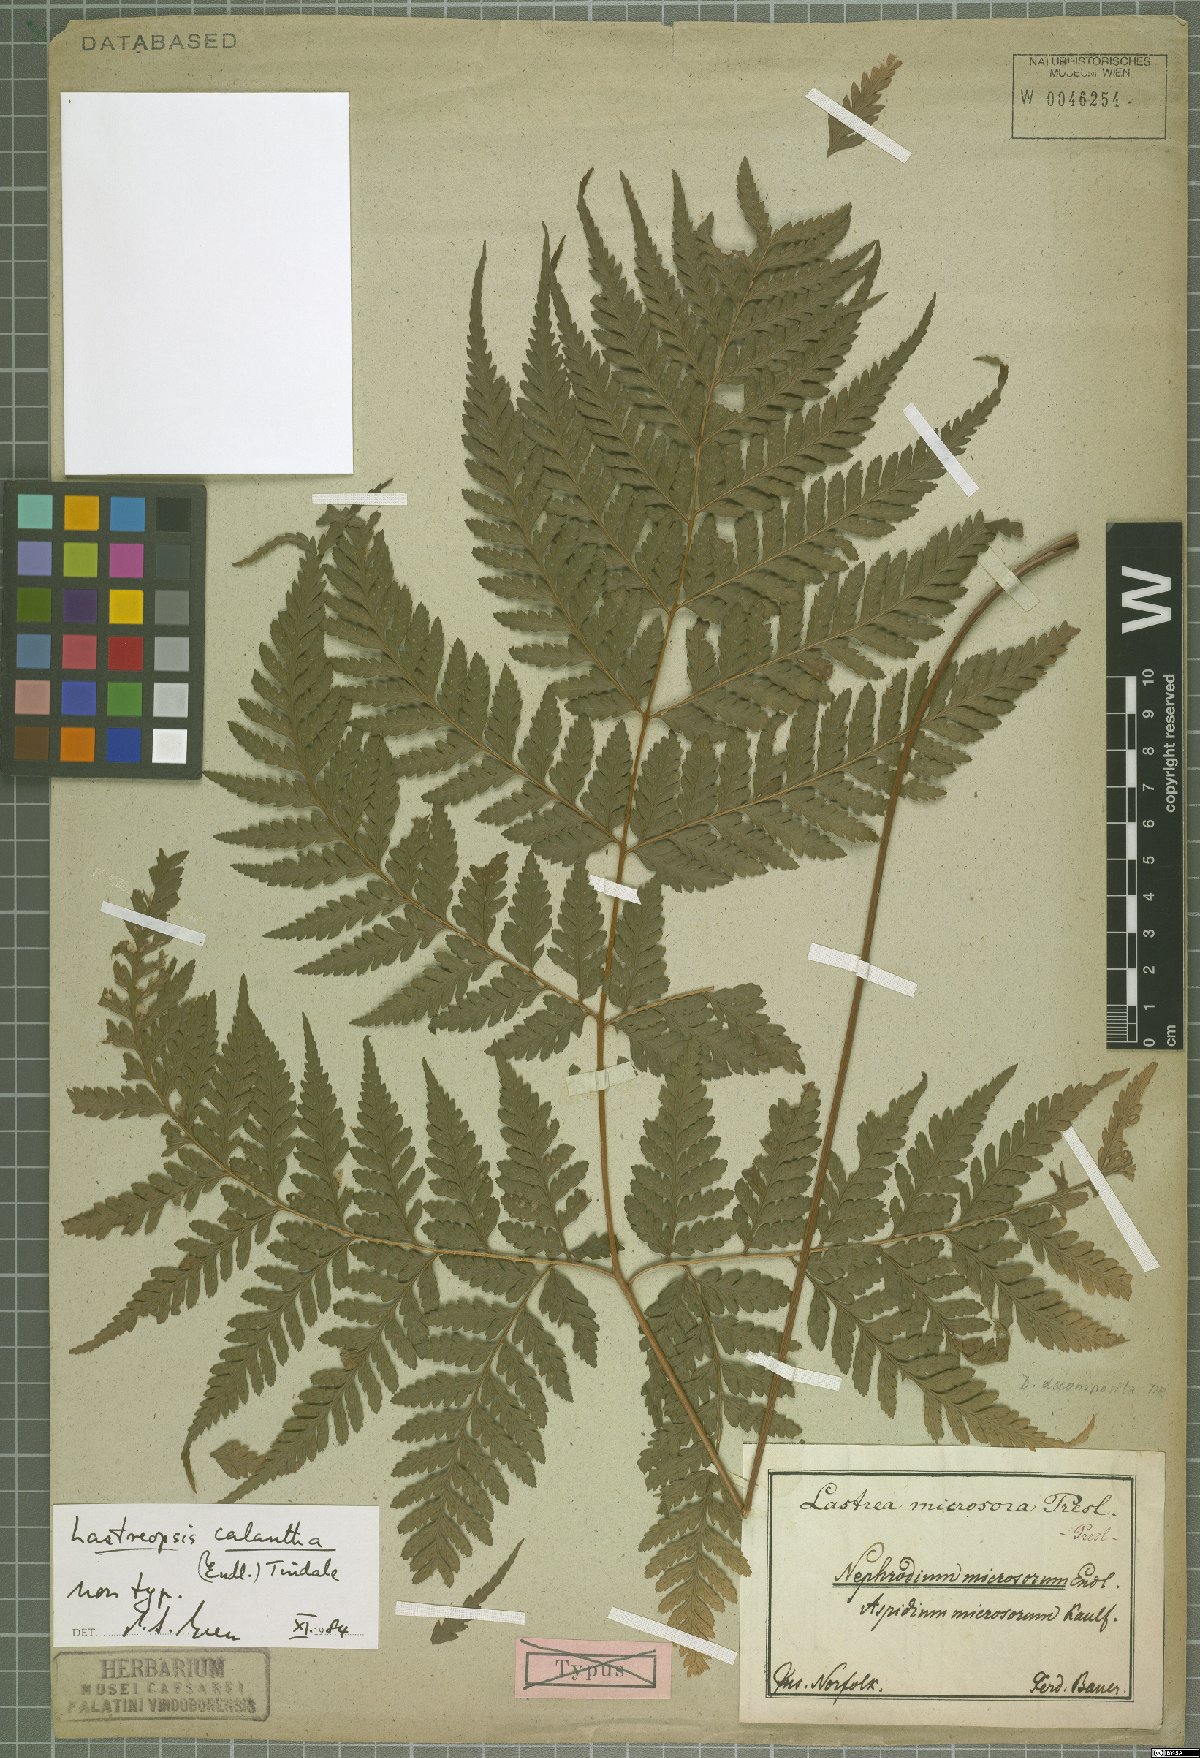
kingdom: Plantae
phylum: Tracheophyta
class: Polypodiopsida
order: Polypodiales
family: Dryopteridaceae
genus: Parapolystichum
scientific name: Parapolystichum calanthum
